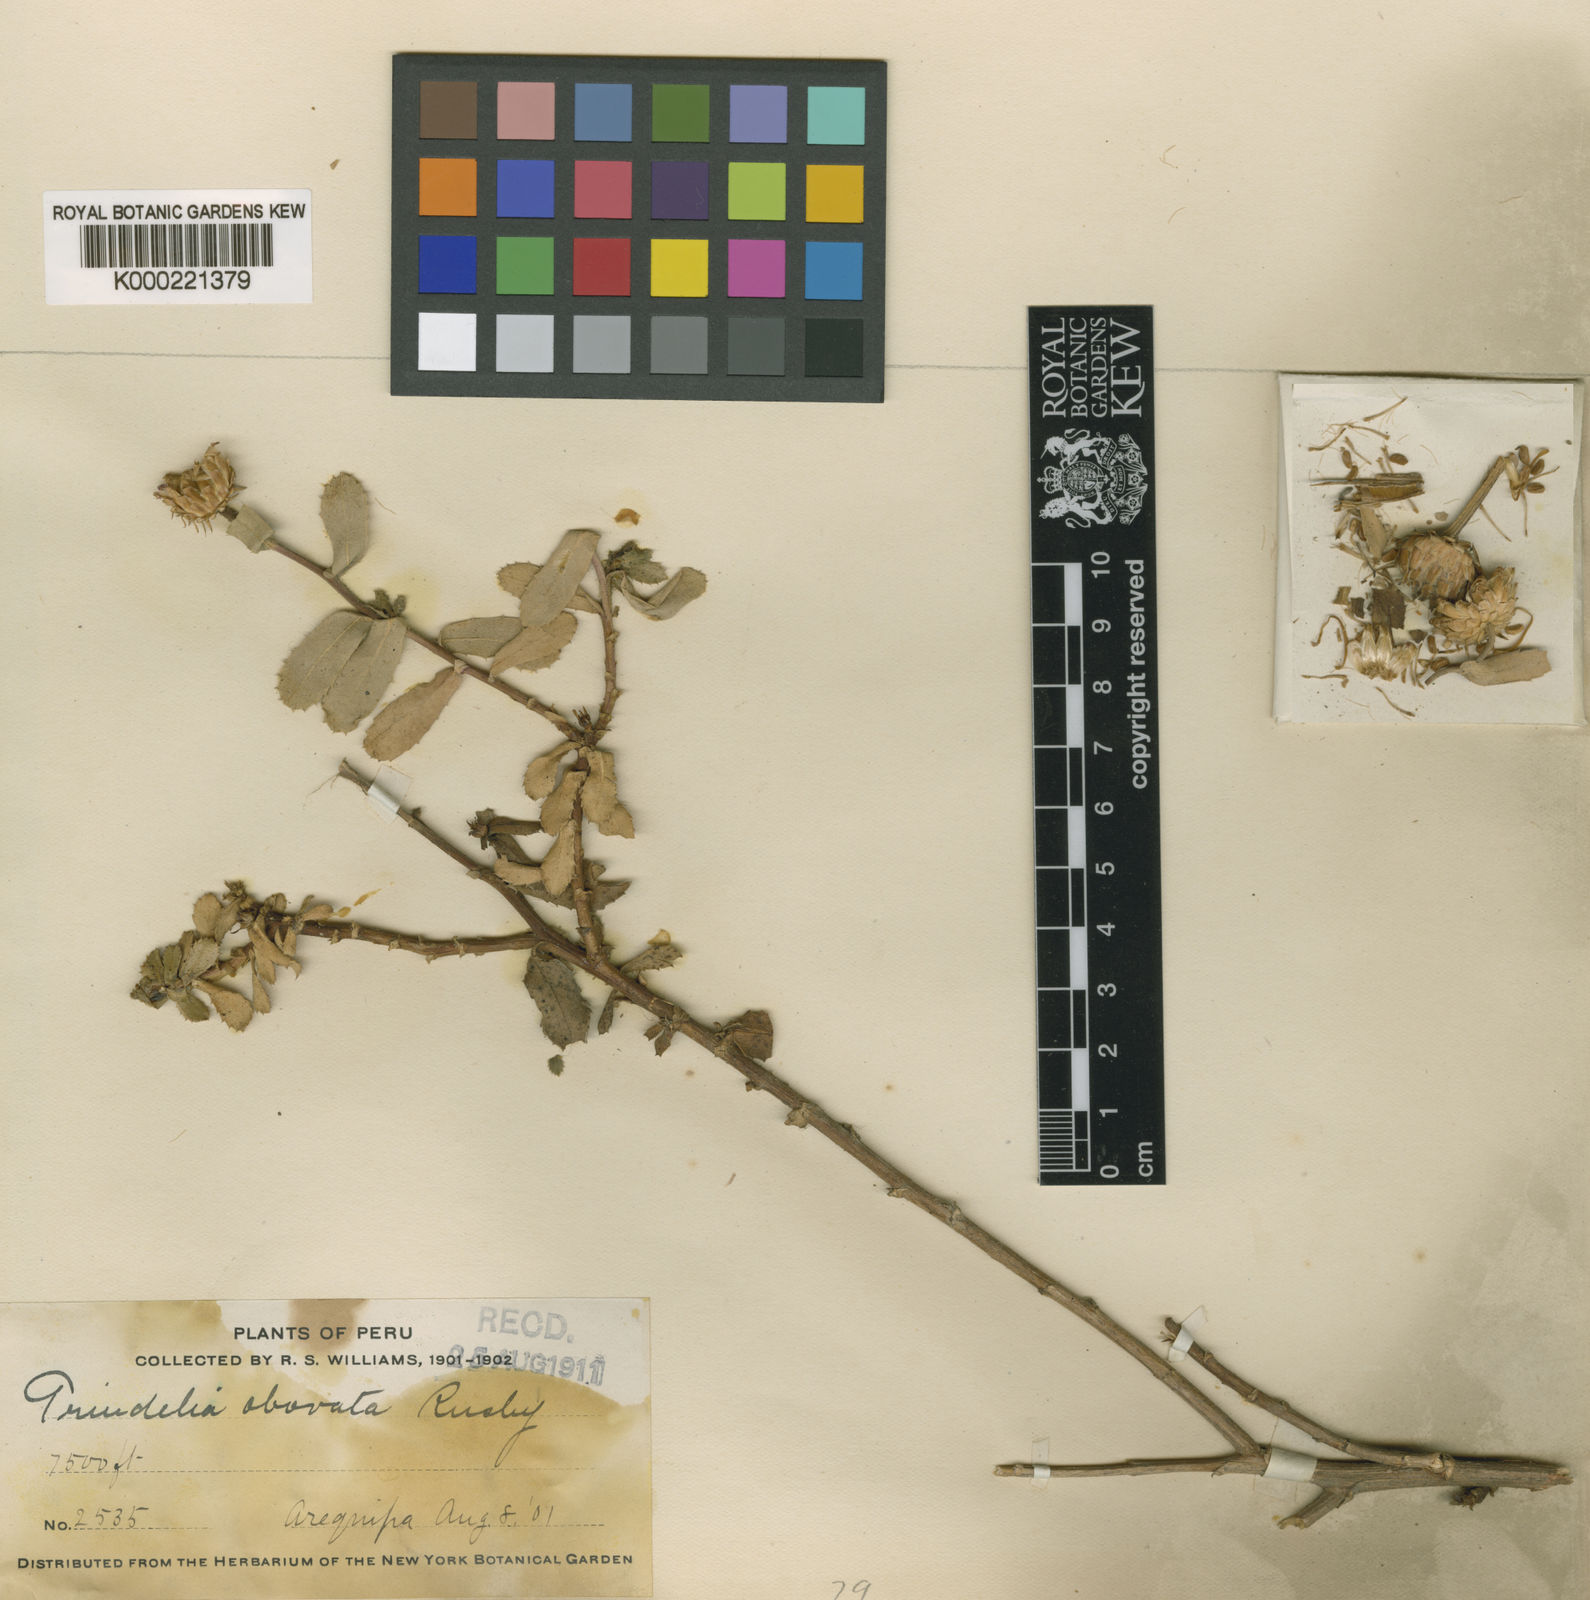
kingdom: Plantae
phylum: Tracheophyta
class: Magnoliopsida
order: Asterales
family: Asteraceae
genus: Grindelia
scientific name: Grindelia tarapacana
